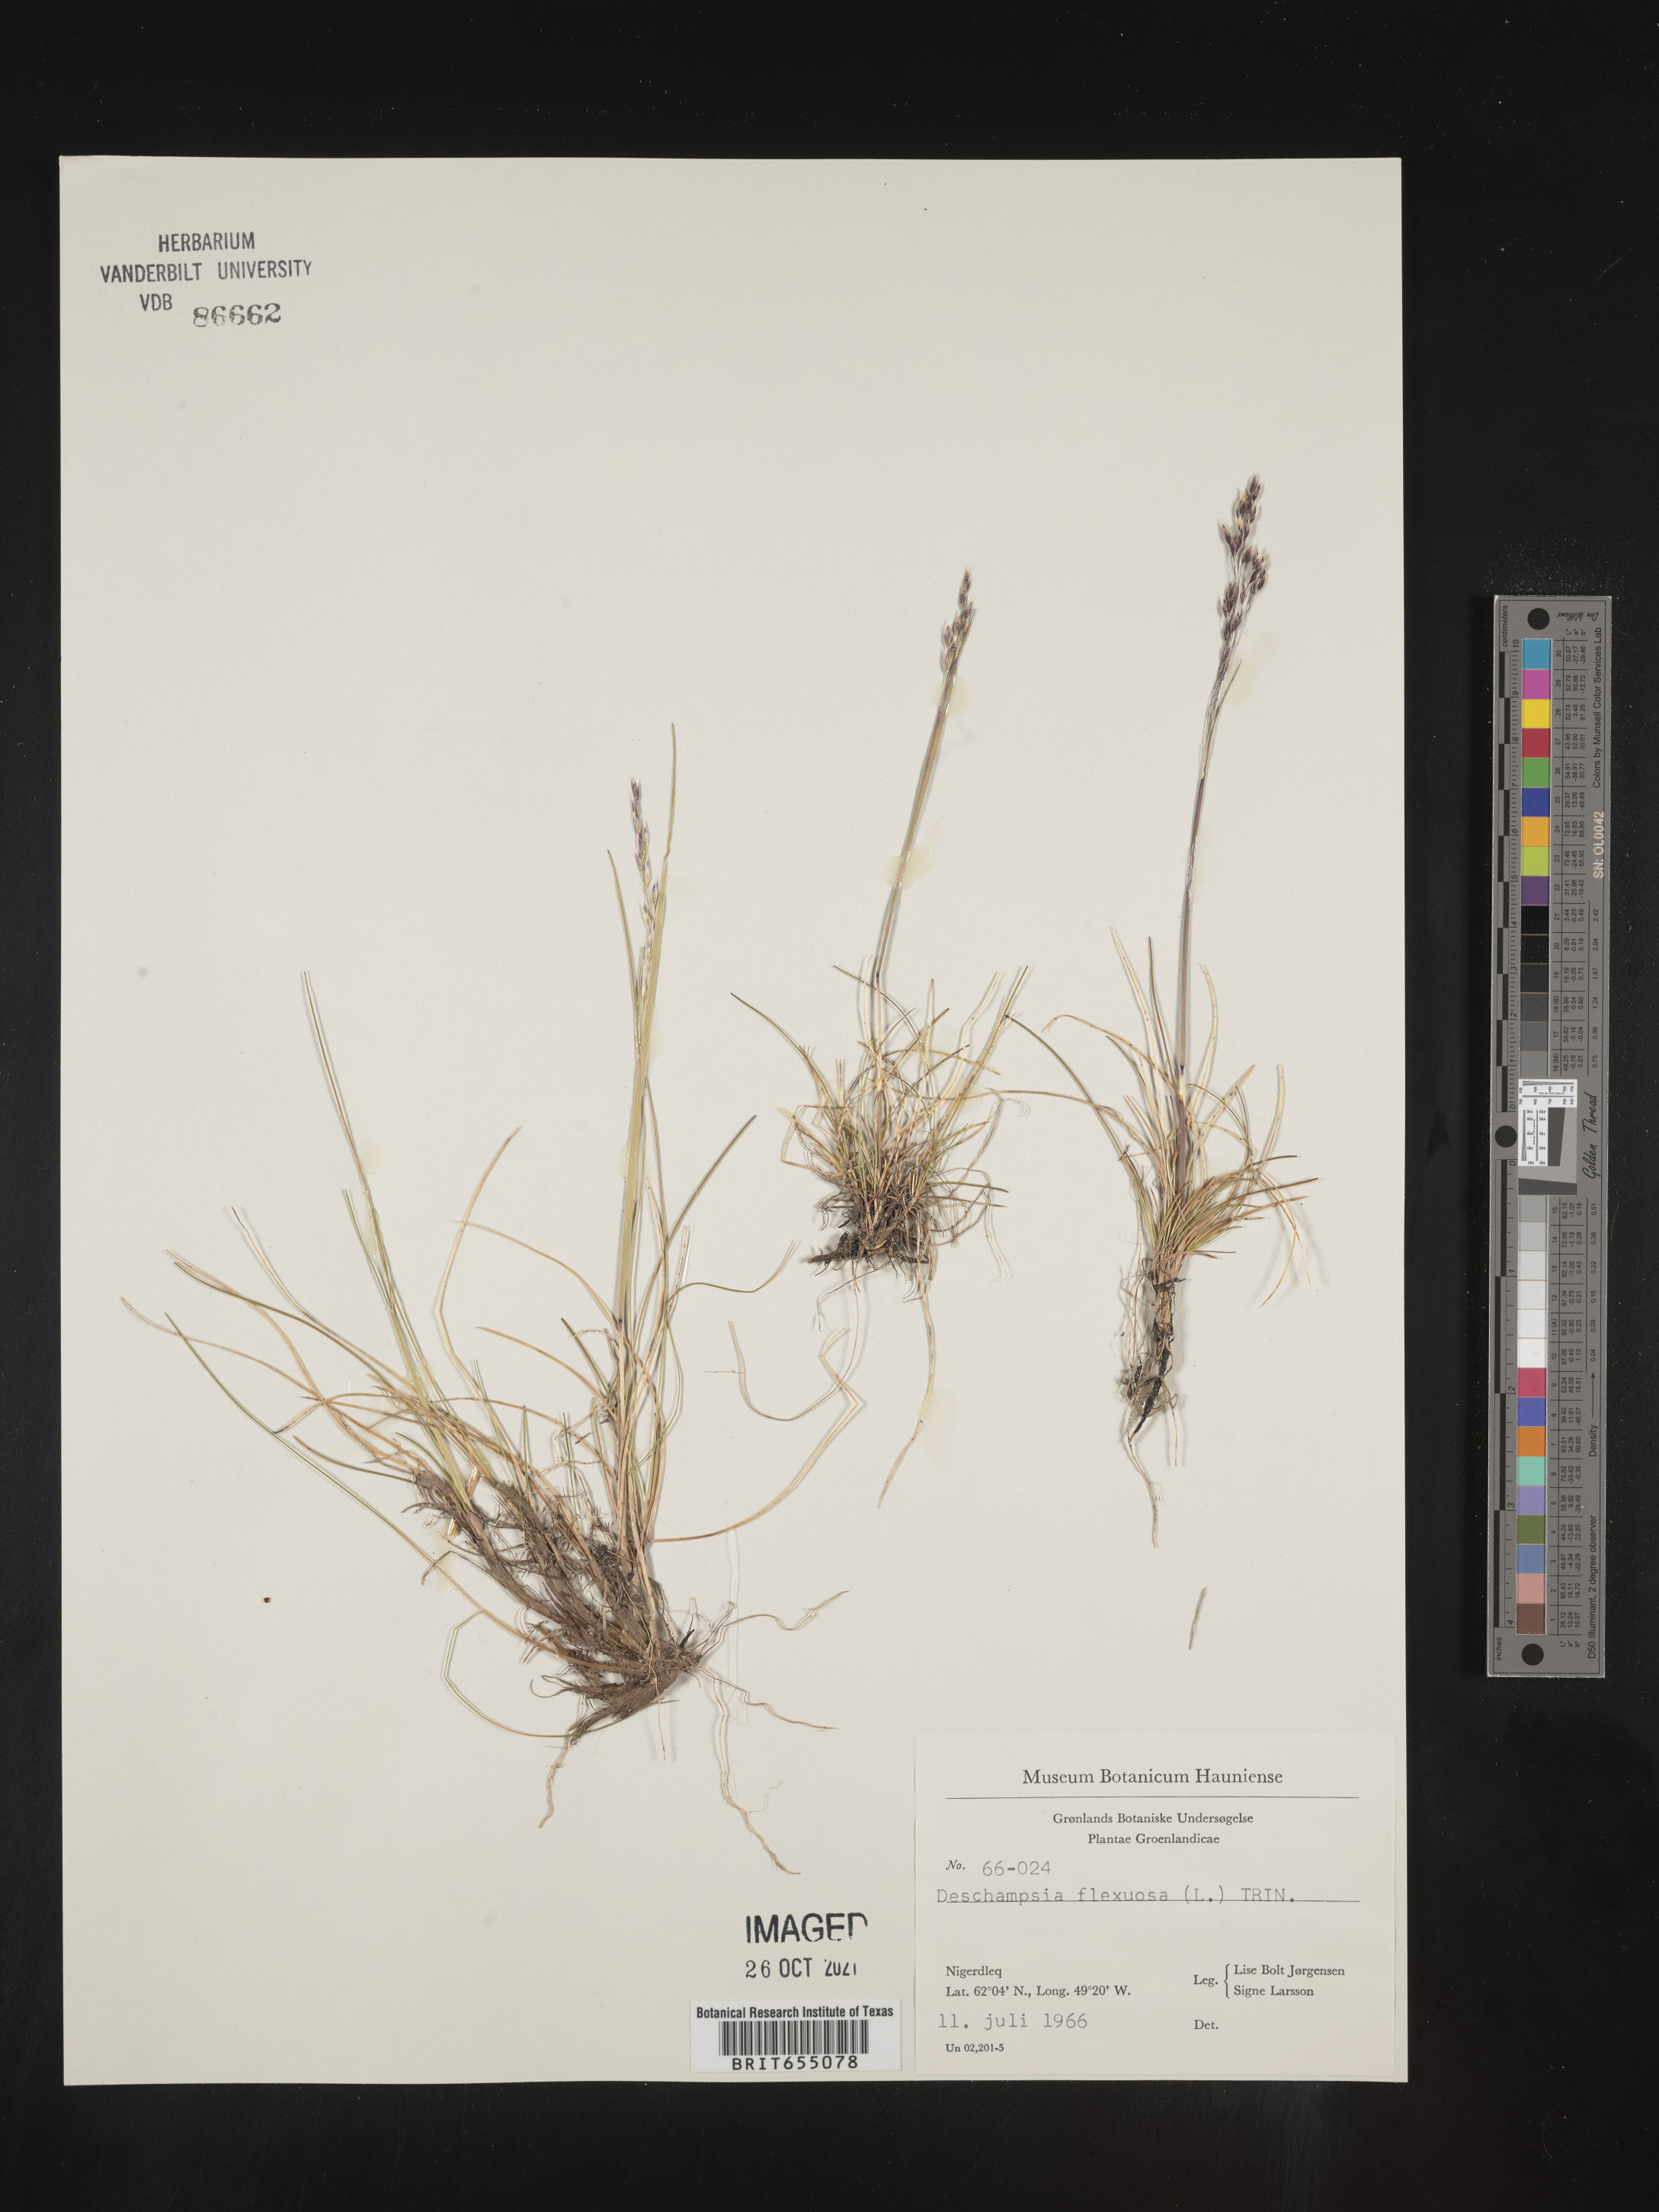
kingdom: Plantae
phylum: Tracheophyta
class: Liliopsida
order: Poales
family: Poaceae
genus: Deschampsia
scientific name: Deschampsia
